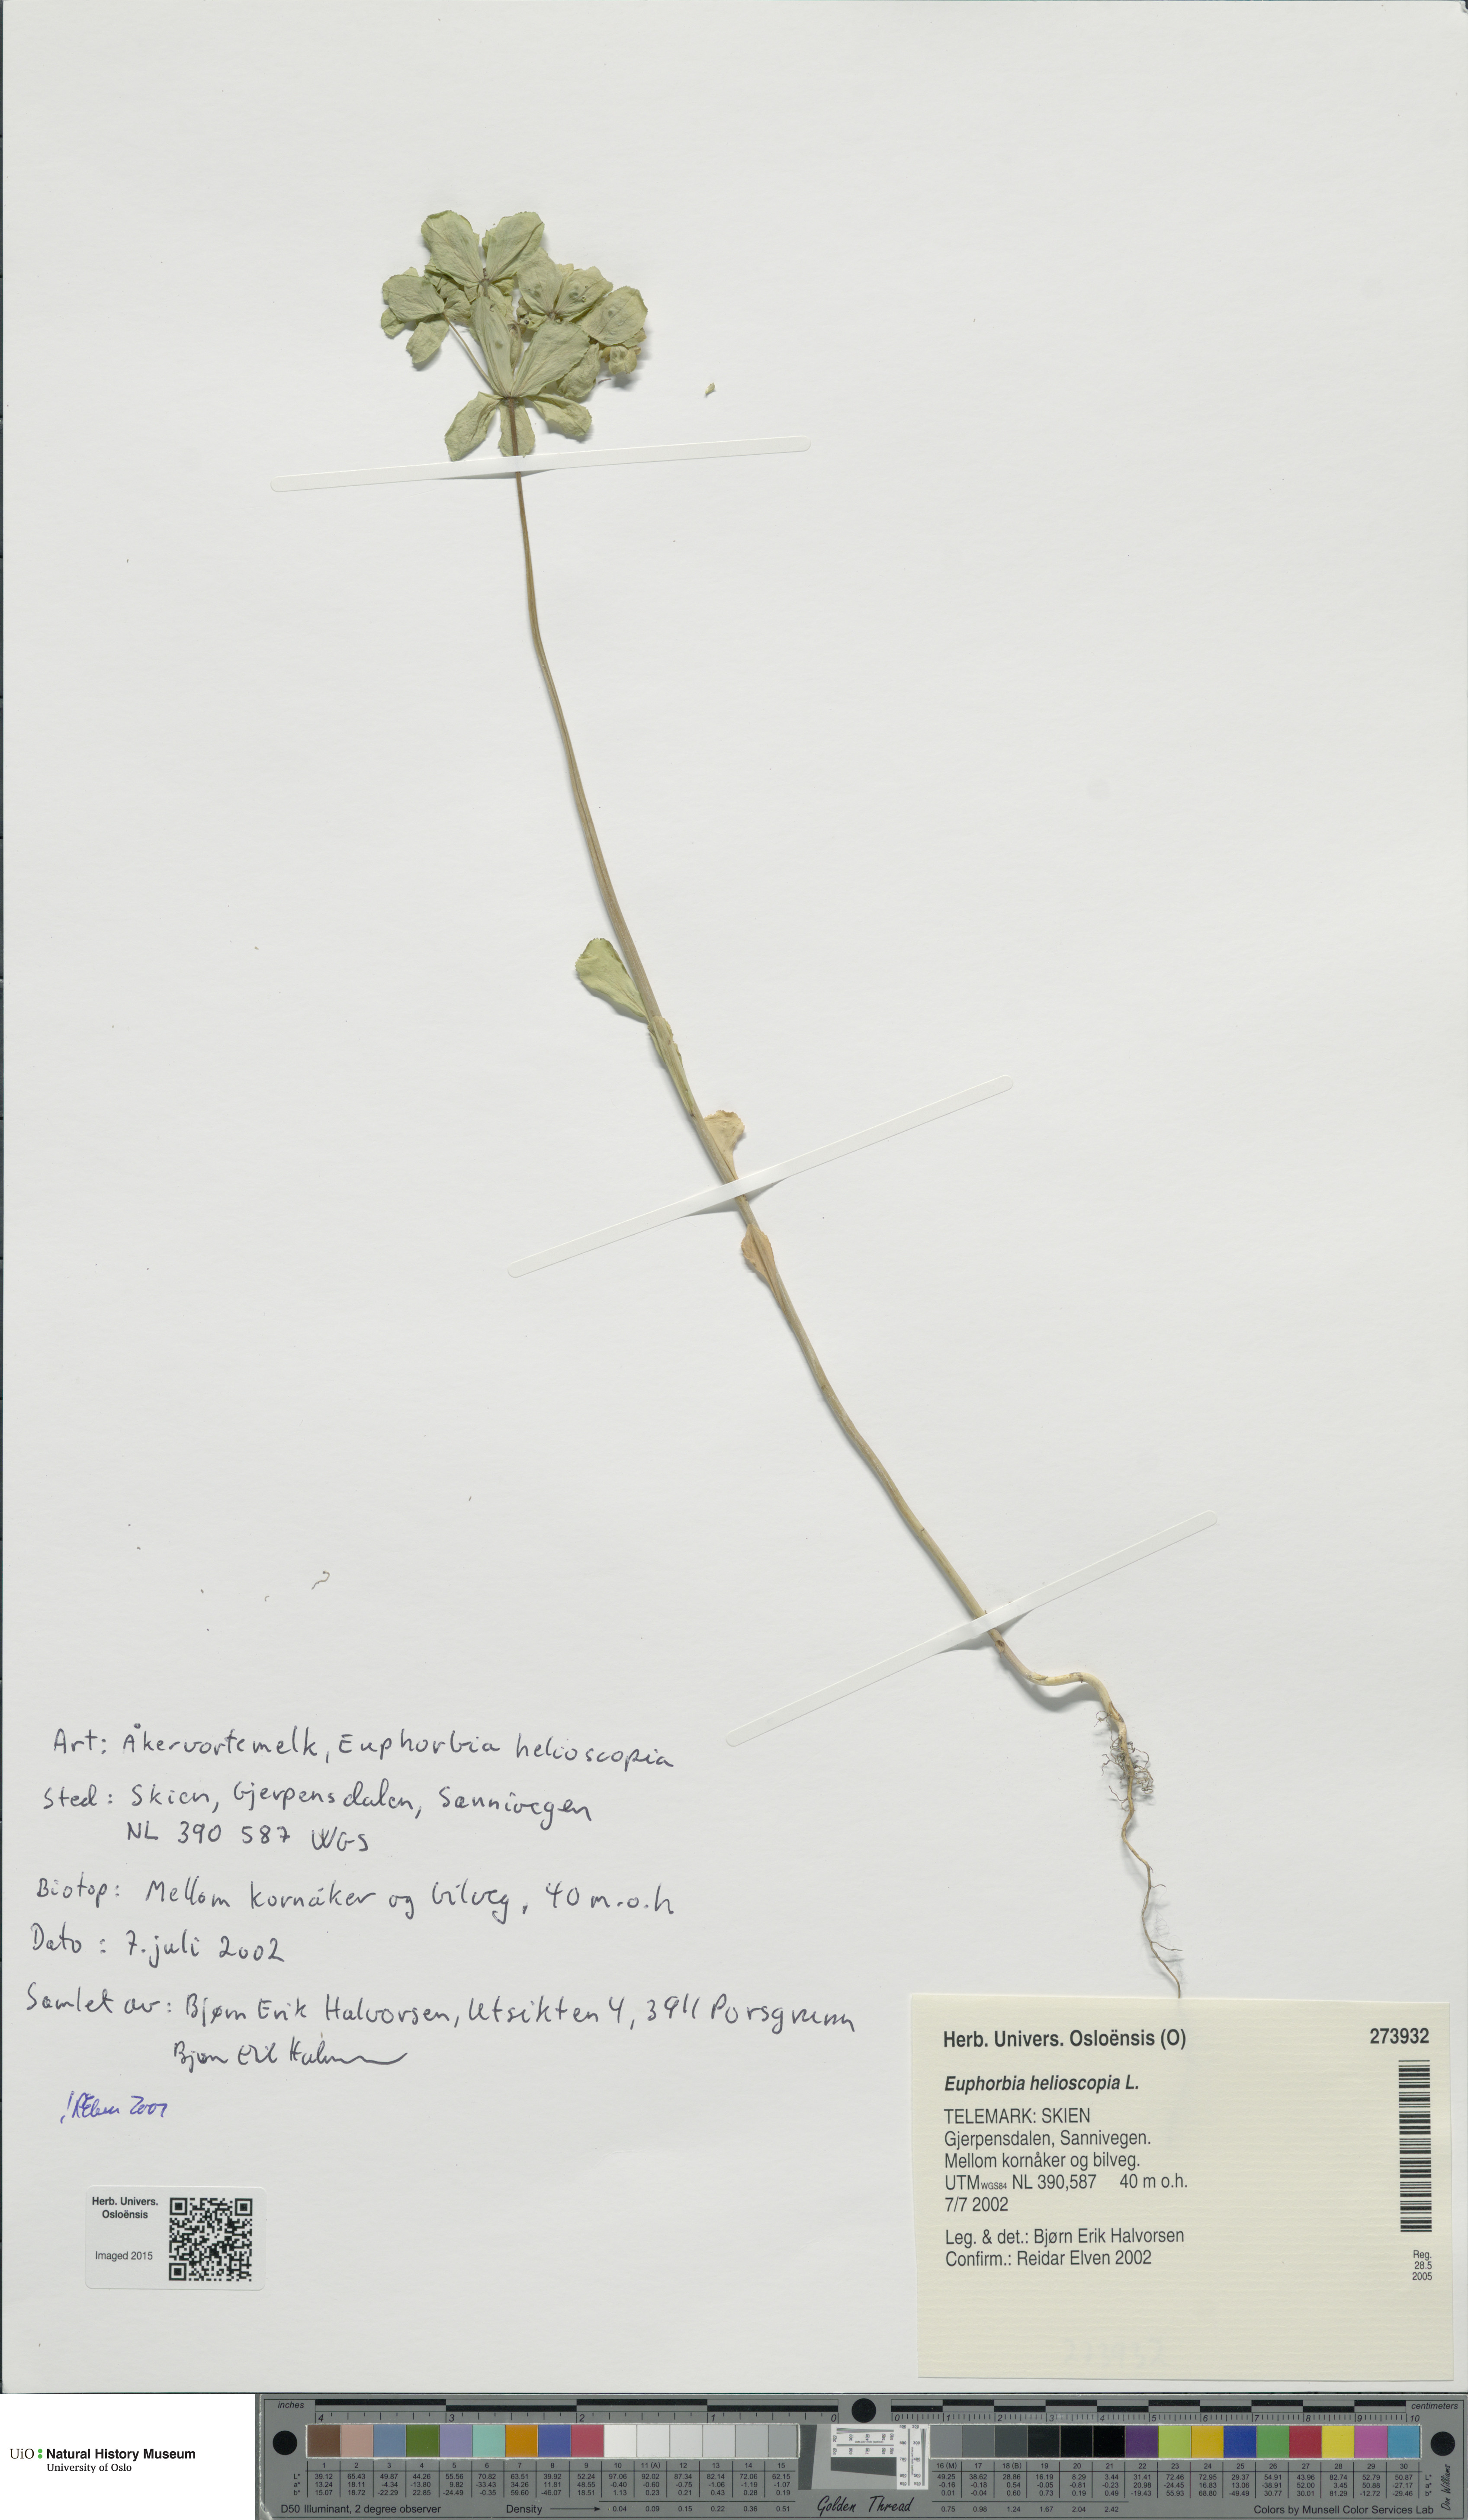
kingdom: Plantae
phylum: Tracheophyta
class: Magnoliopsida
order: Malpighiales
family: Euphorbiaceae
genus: Euphorbia
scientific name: Euphorbia helioscopia
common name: Sun spurge
